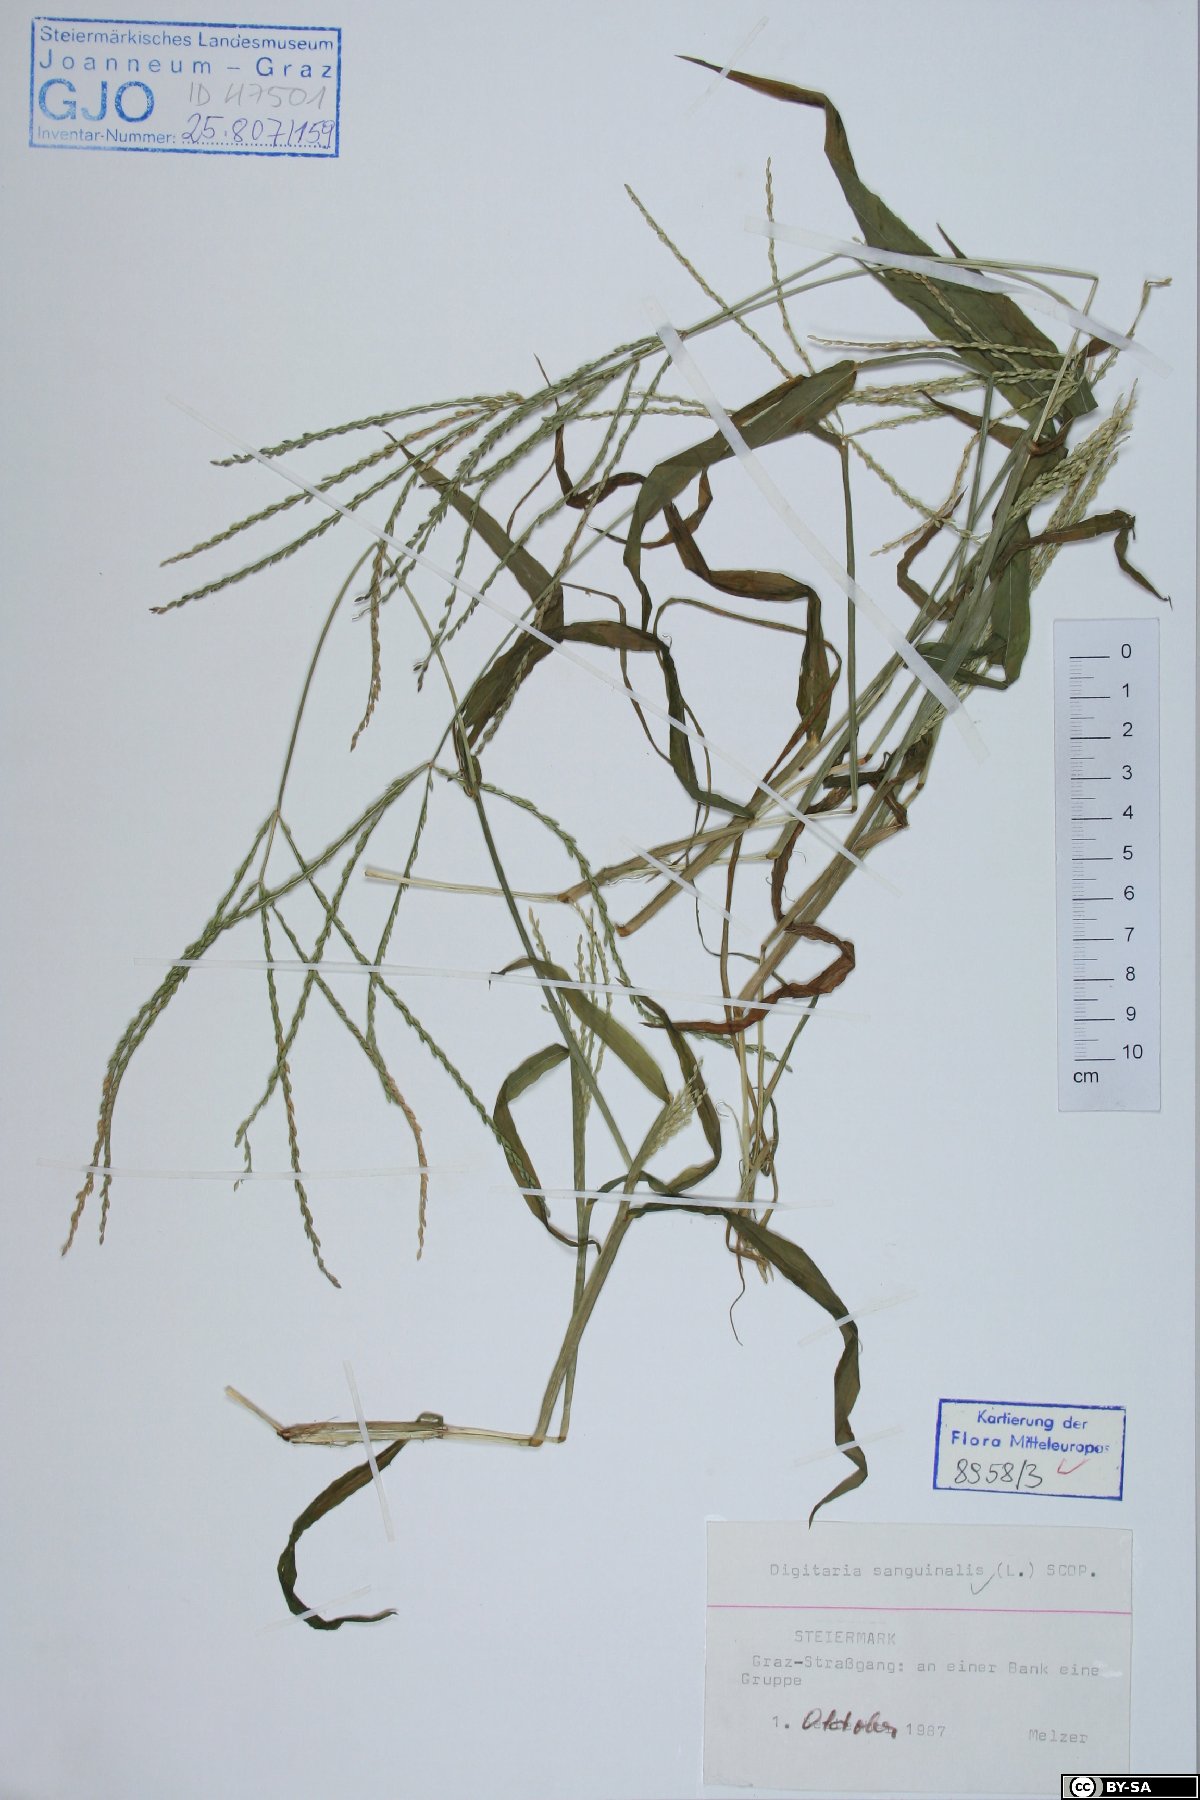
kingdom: Plantae
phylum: Tracheophyta
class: Liliopsida
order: Poales
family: Poaceae
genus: Digitaria
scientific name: Digitaria sanguinalis
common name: Hairy crabgrass
